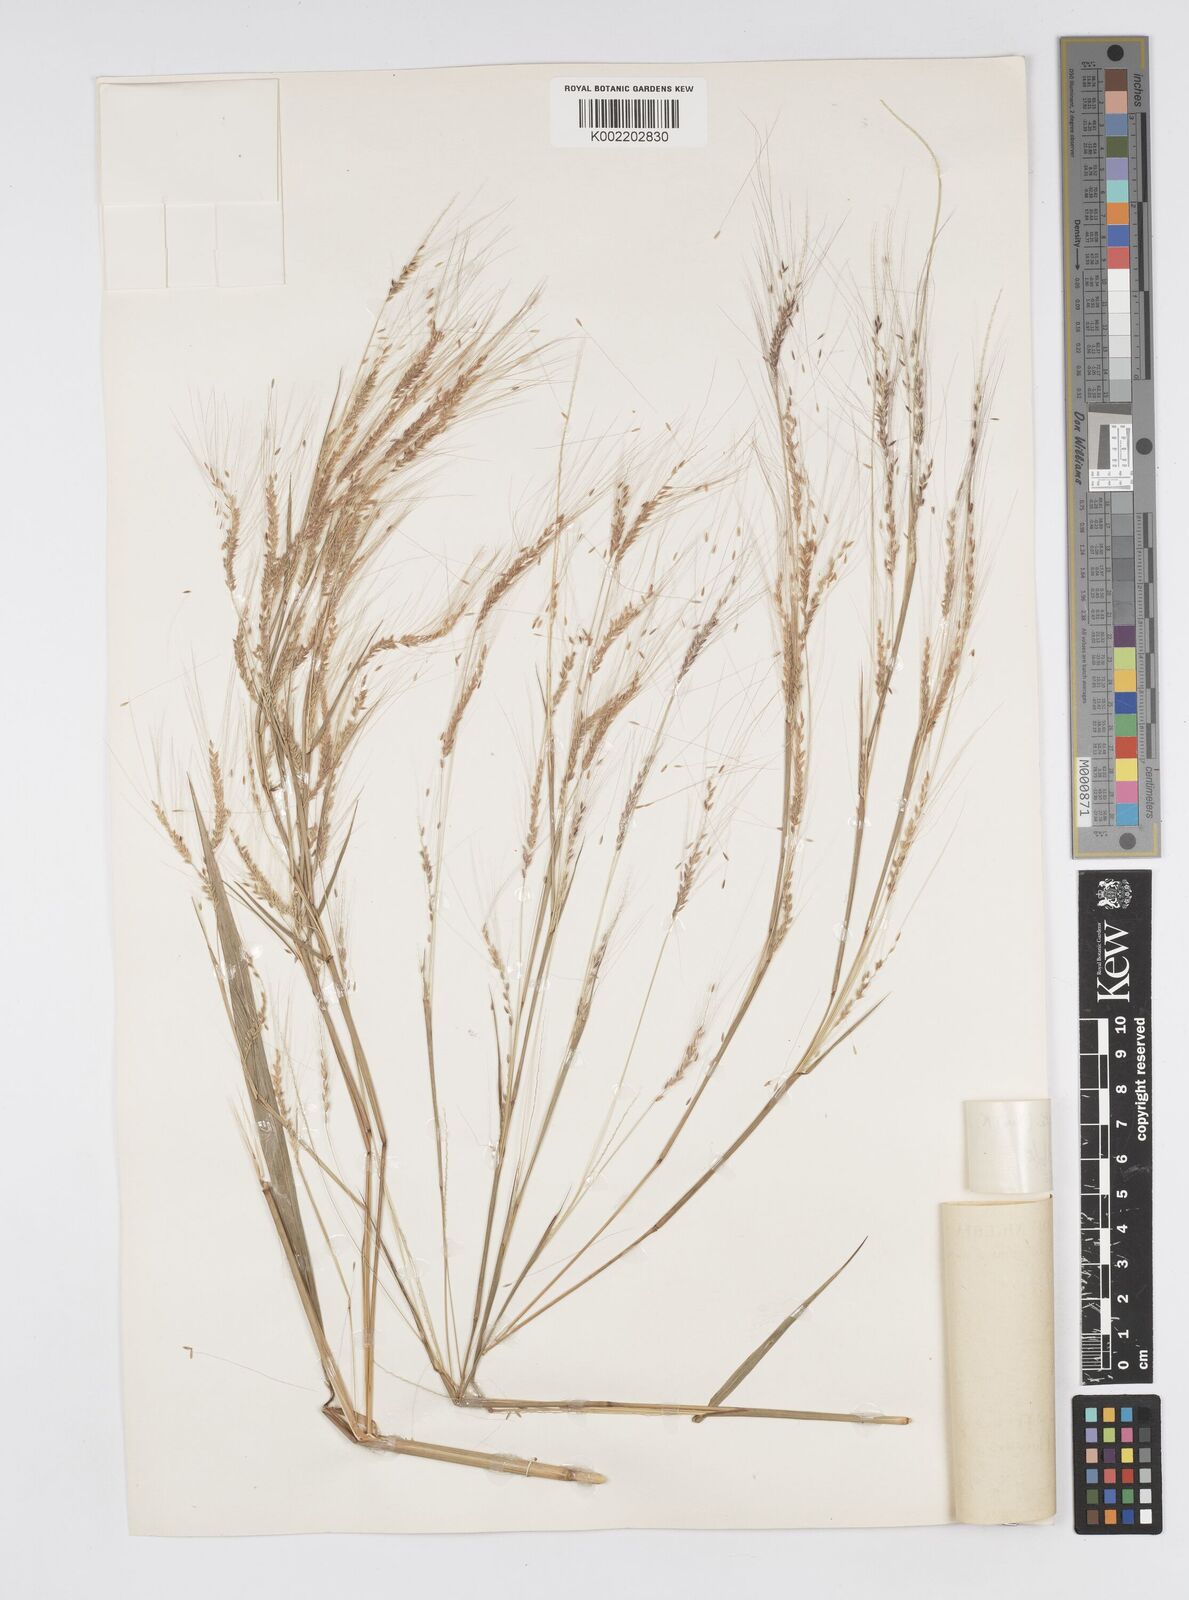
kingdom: Plantae
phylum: Tracheophyta
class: Liliopsida
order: Poales
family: Poaceae
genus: Cenchrus
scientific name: Cenchrus unisetus
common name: Natal grass
